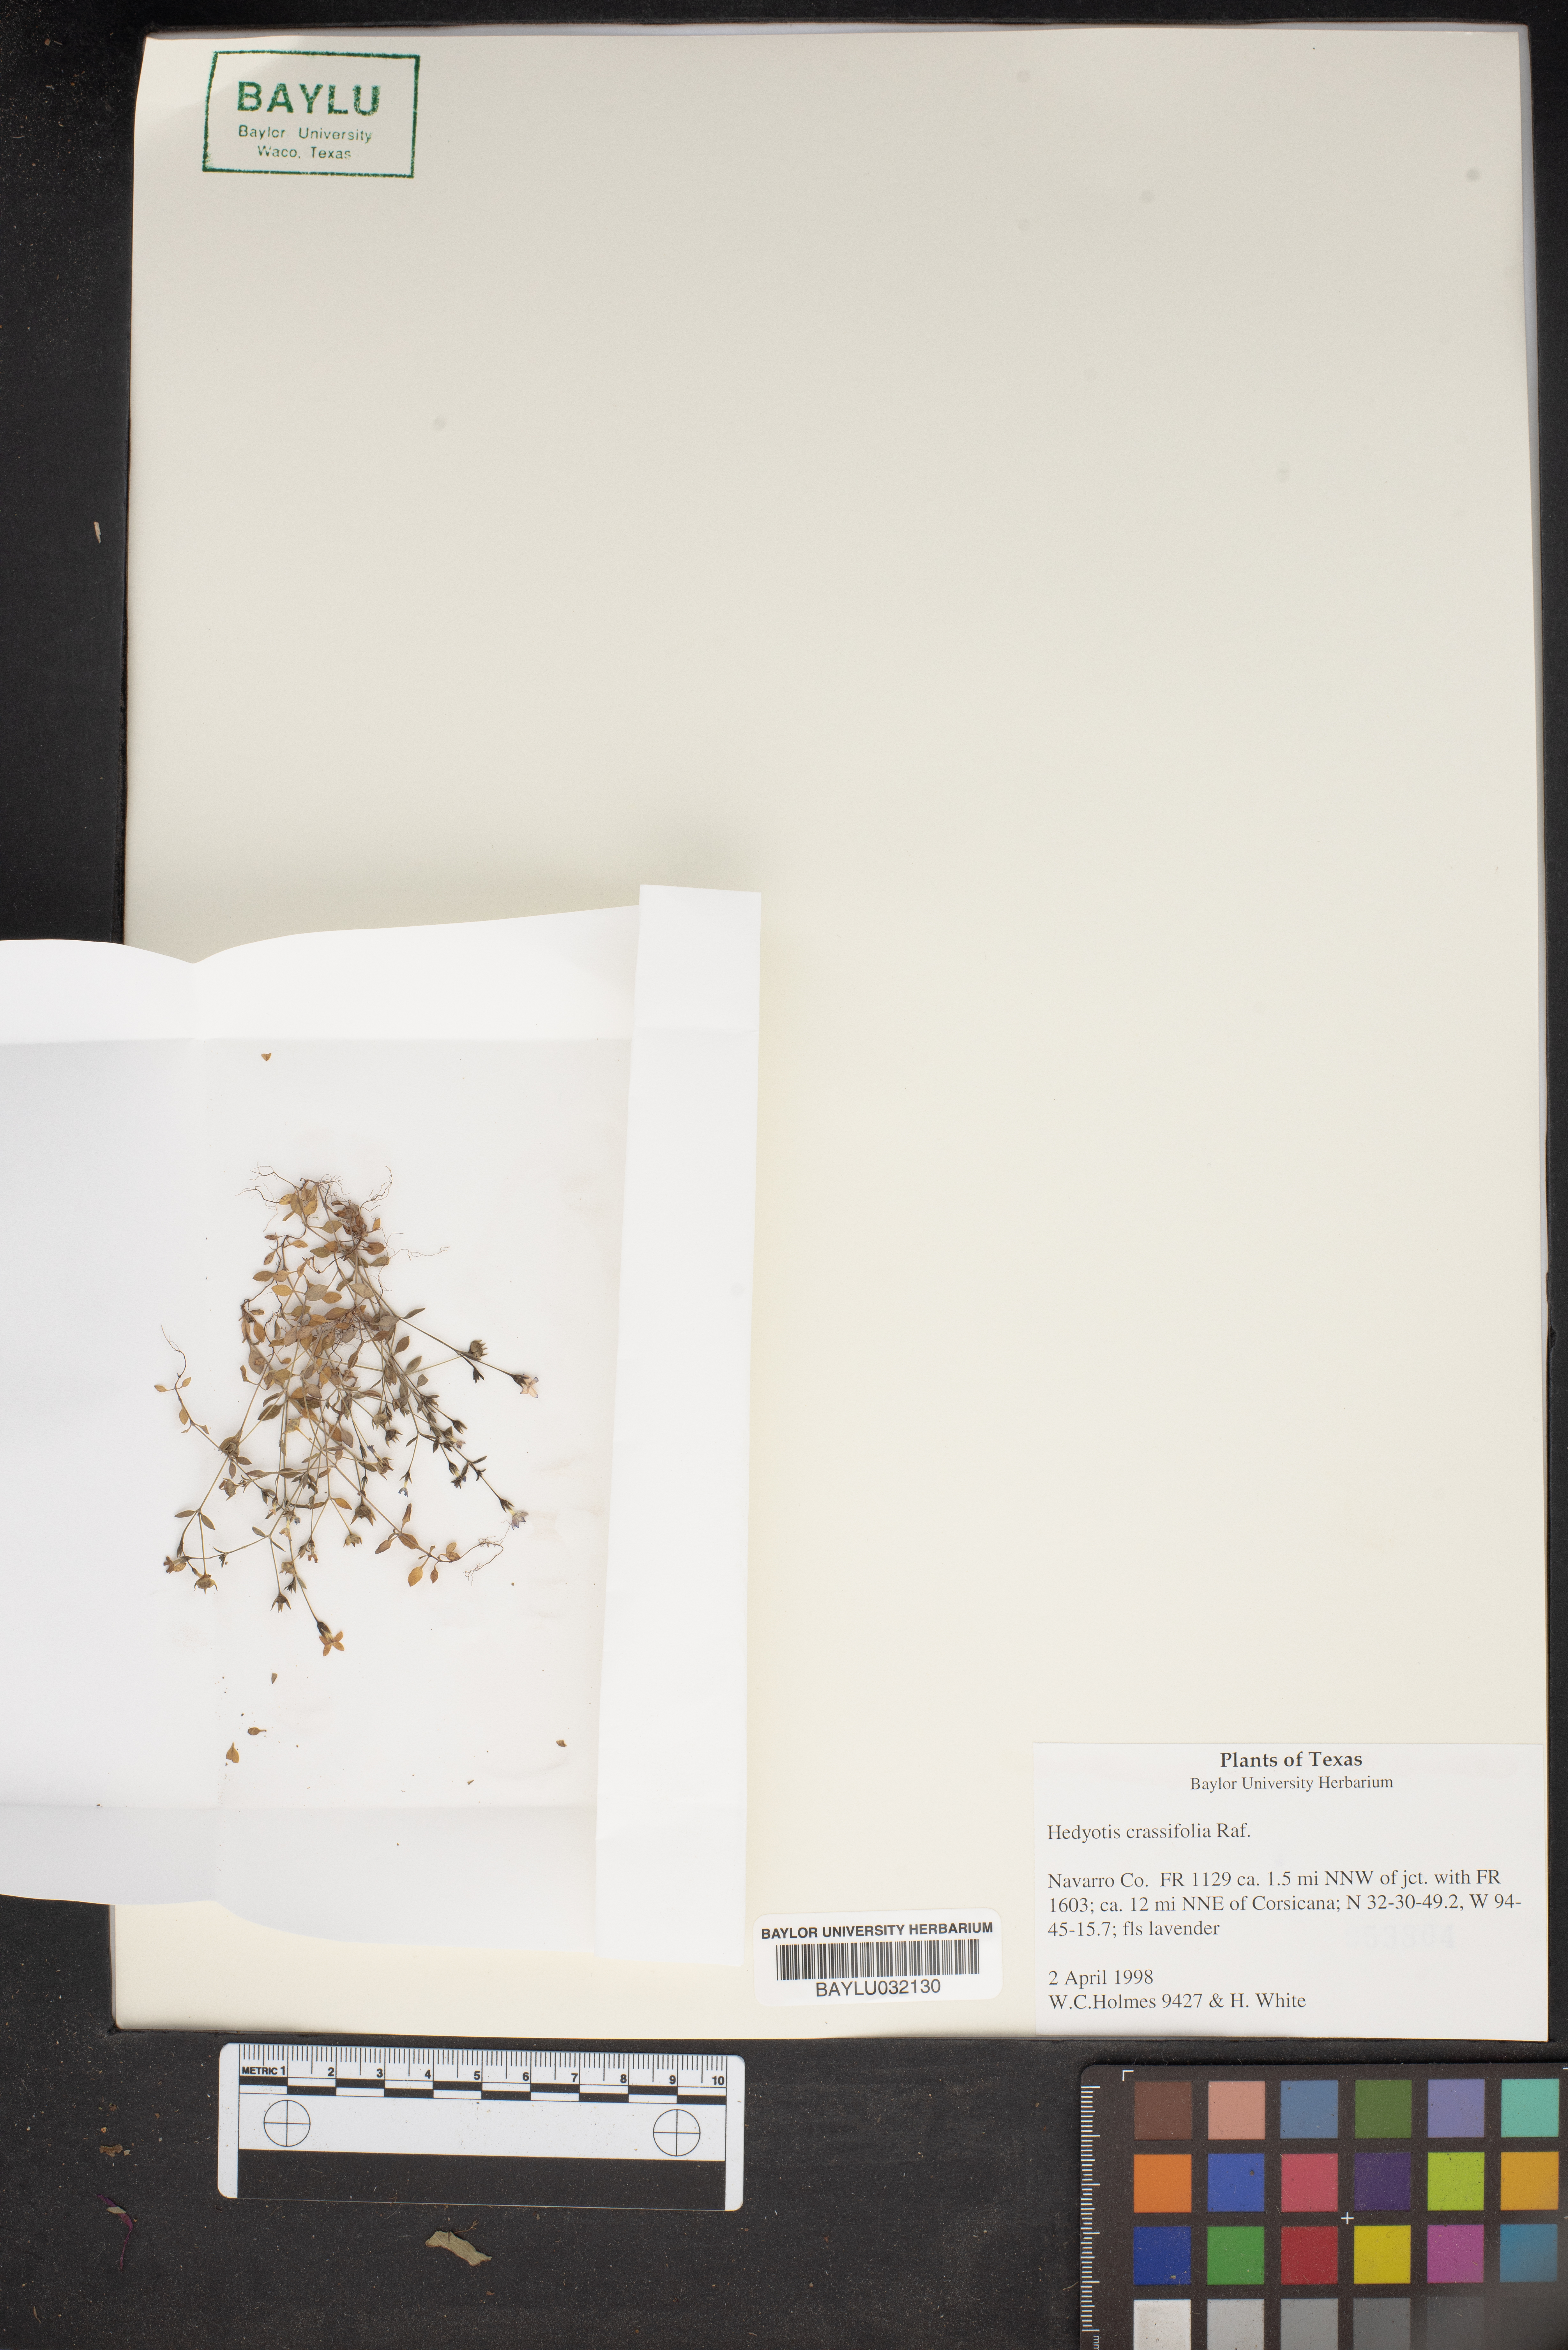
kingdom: Plantae
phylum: Tracheophyta
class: Magnoliopsida
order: Gentianales
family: Rubiaceae
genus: Houstonia
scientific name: Houstonia pusilla
